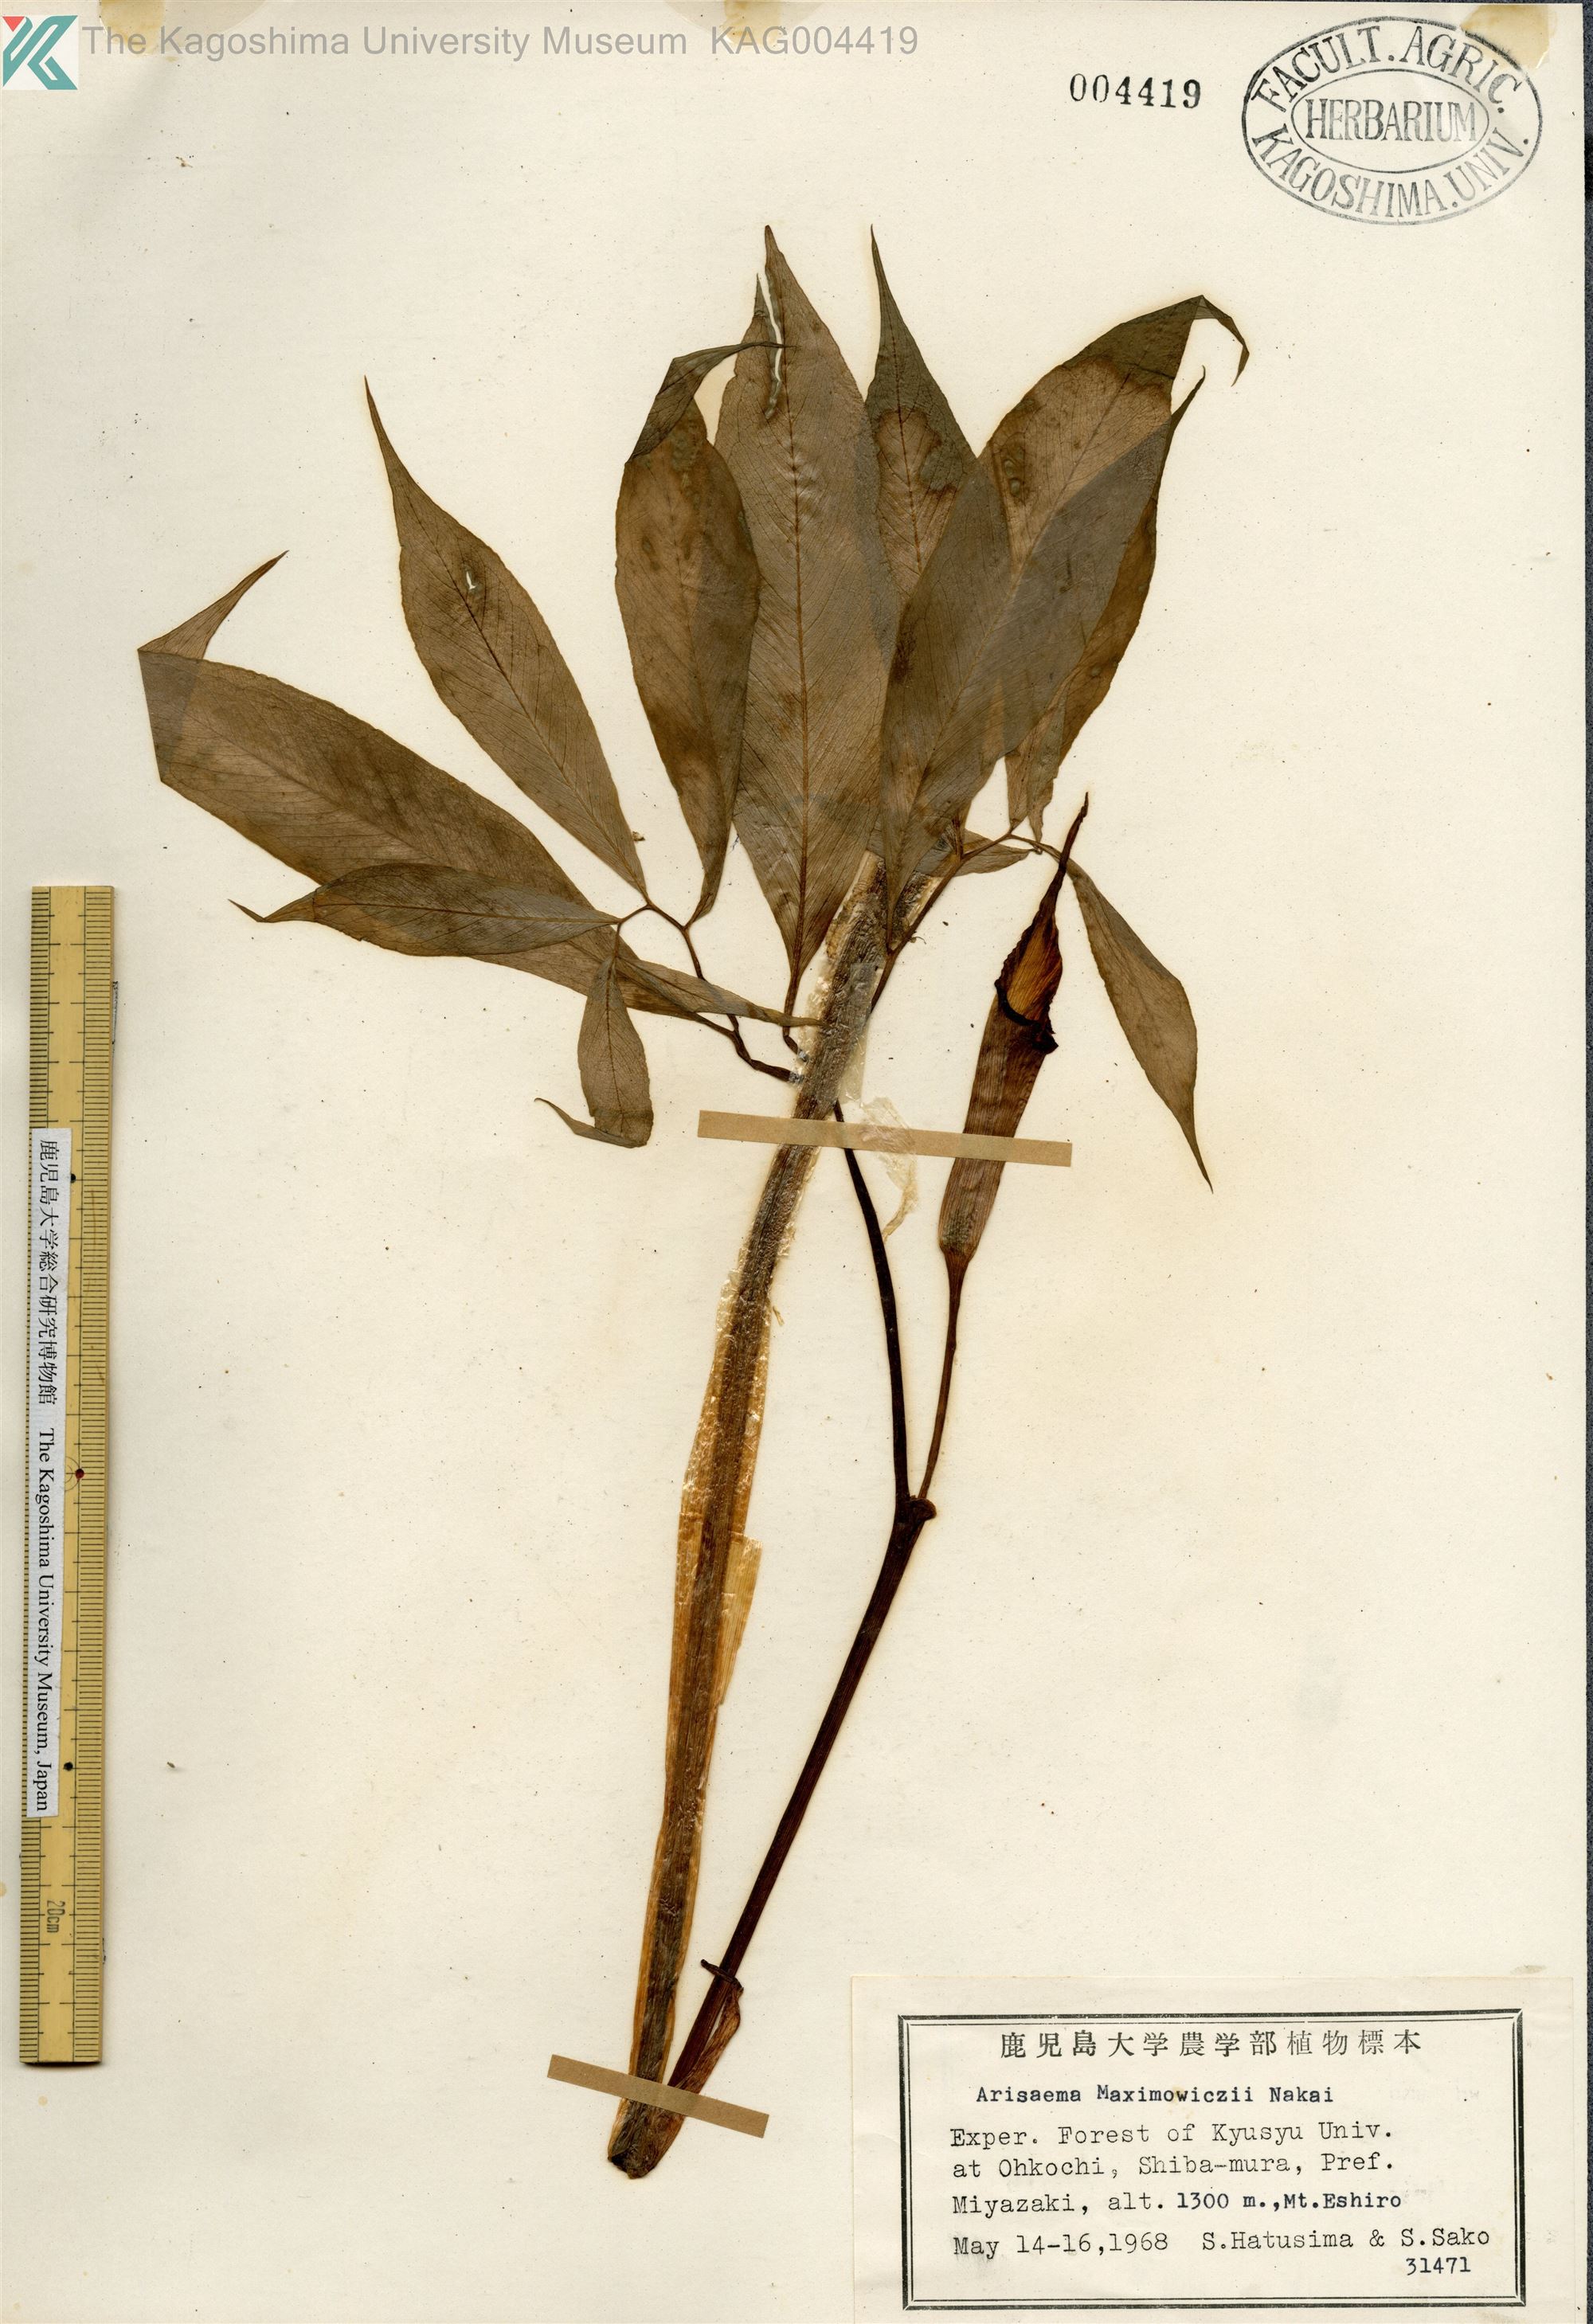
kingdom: Plantae
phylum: Tracheophyta
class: Liliopsida
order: Alismatales
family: Araceae
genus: Arisaema
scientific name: Arisaema maximowiczii
